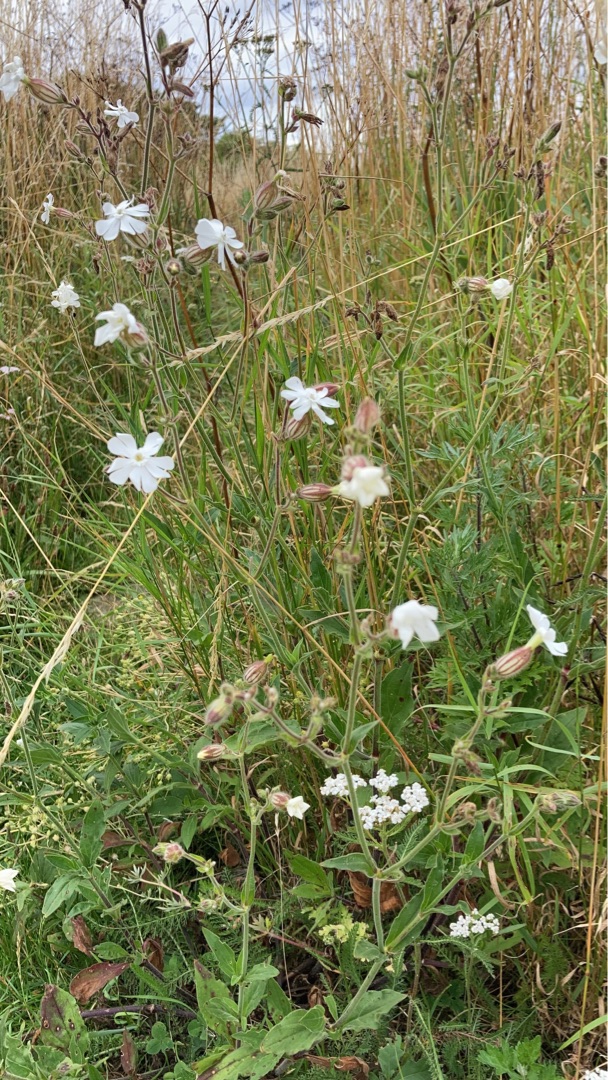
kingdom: Plantae
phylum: Tracheophyta
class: Magnoliopsida
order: Caryophyllales
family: Caryophyllaceae
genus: Silene
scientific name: Silene latifolia
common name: Aftenpragtstjerne
